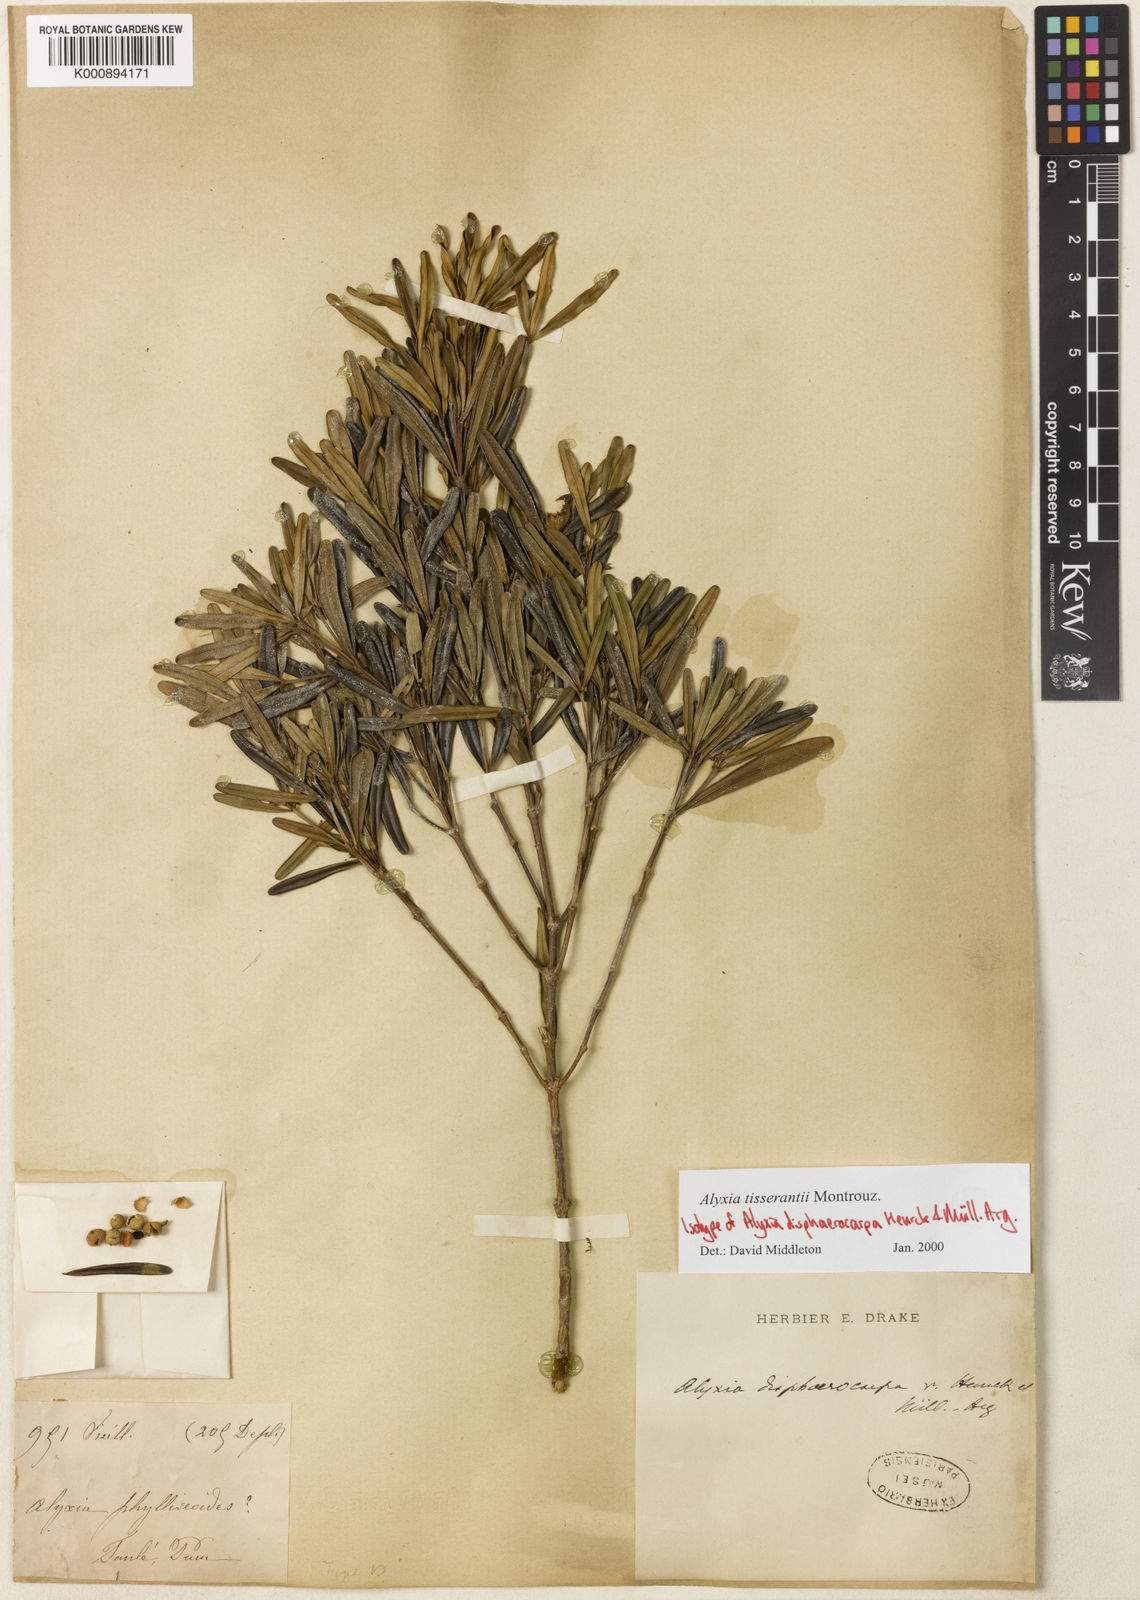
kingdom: Plantae
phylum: Tracheophyta
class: Magnoliopsida
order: Gentianales
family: Apocynaceae
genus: Alyxia
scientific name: Alyxia tisserantii
